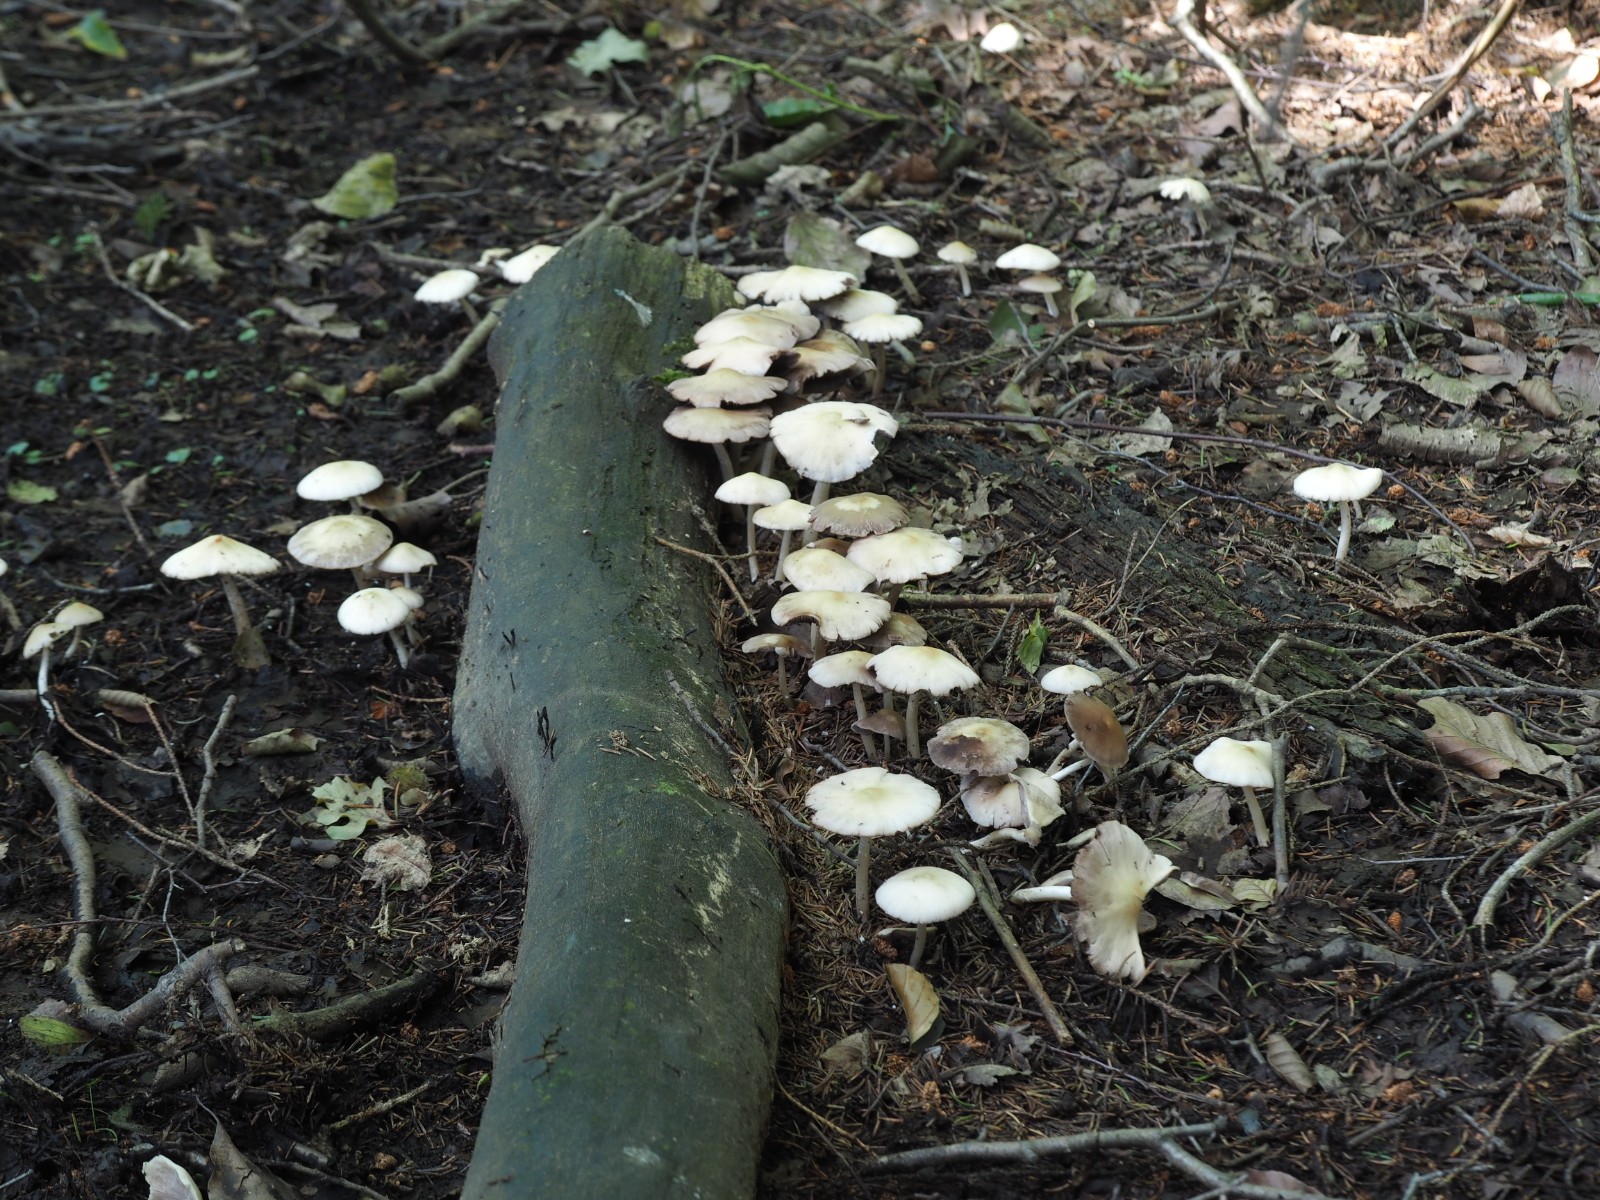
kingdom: Fungi
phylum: Basidiomycota
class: Agaricomycetes
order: Agaricales
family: Psathyrellaceae
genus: Candolleomyces
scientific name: Candolleomyces candolleanus
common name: Candolles mørkhat
